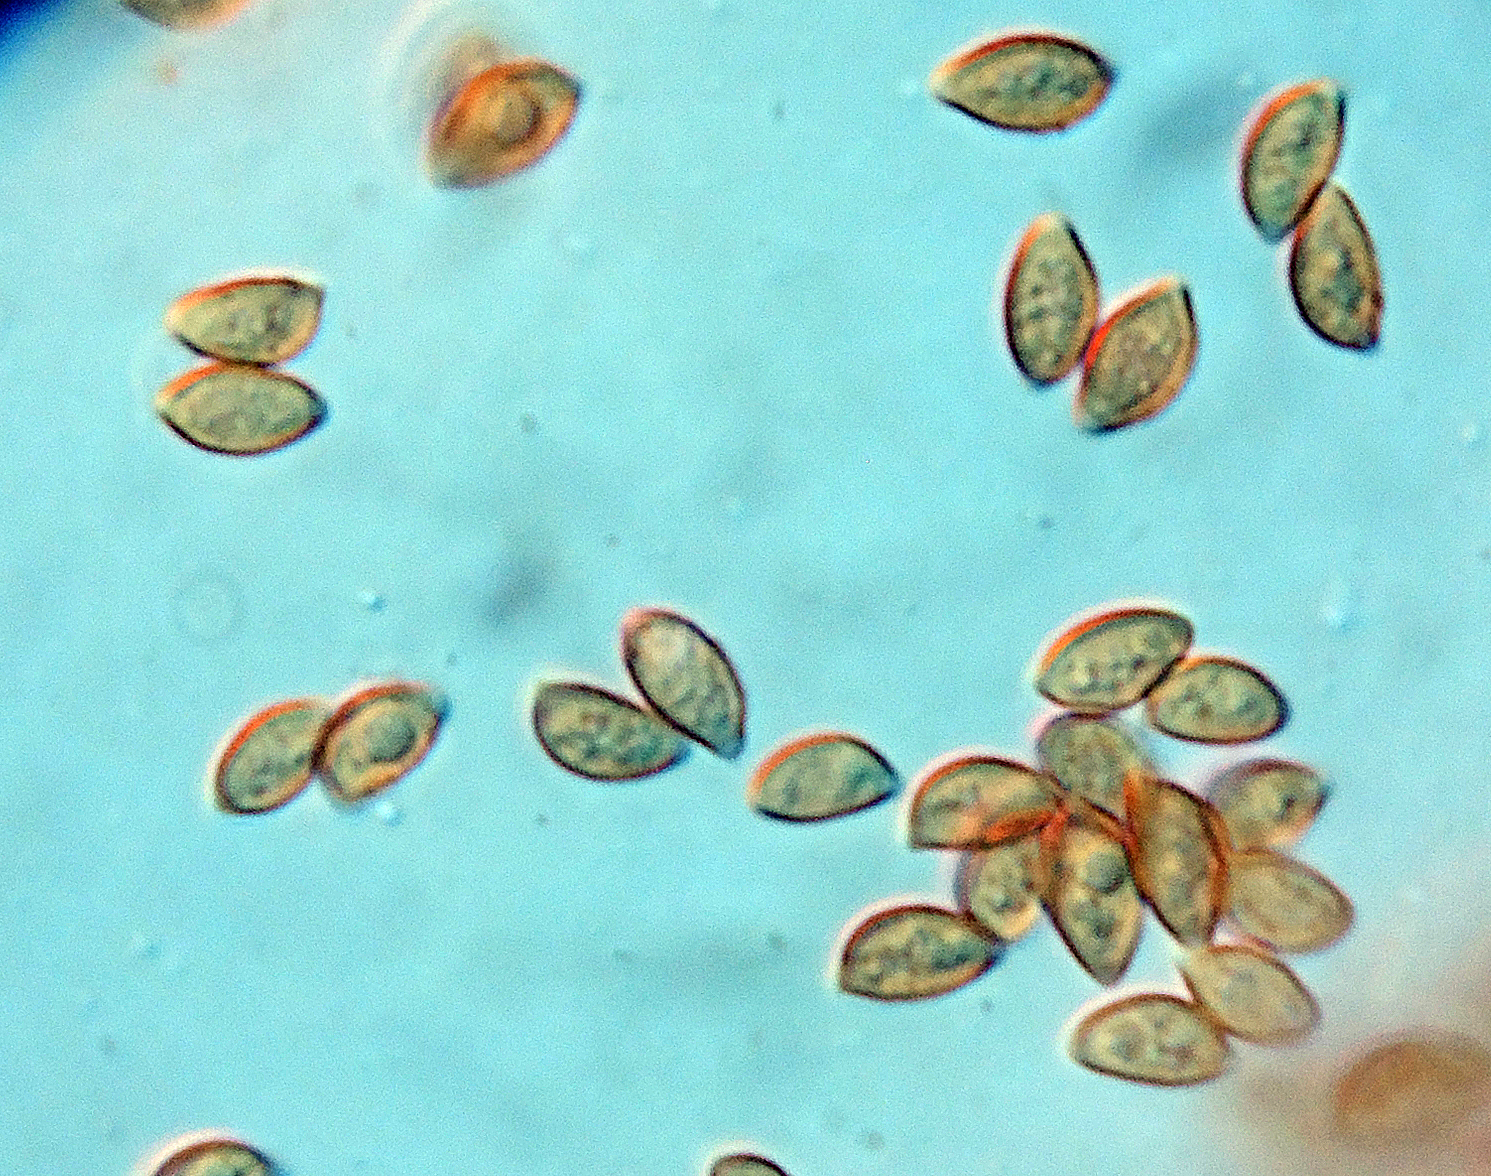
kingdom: Fungi
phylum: Basidiomycota
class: Agaricomycetes
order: Agaricales
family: Bolbitiaceae
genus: Conocybe
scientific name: Conocybe dumetorum
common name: Copse conecap
